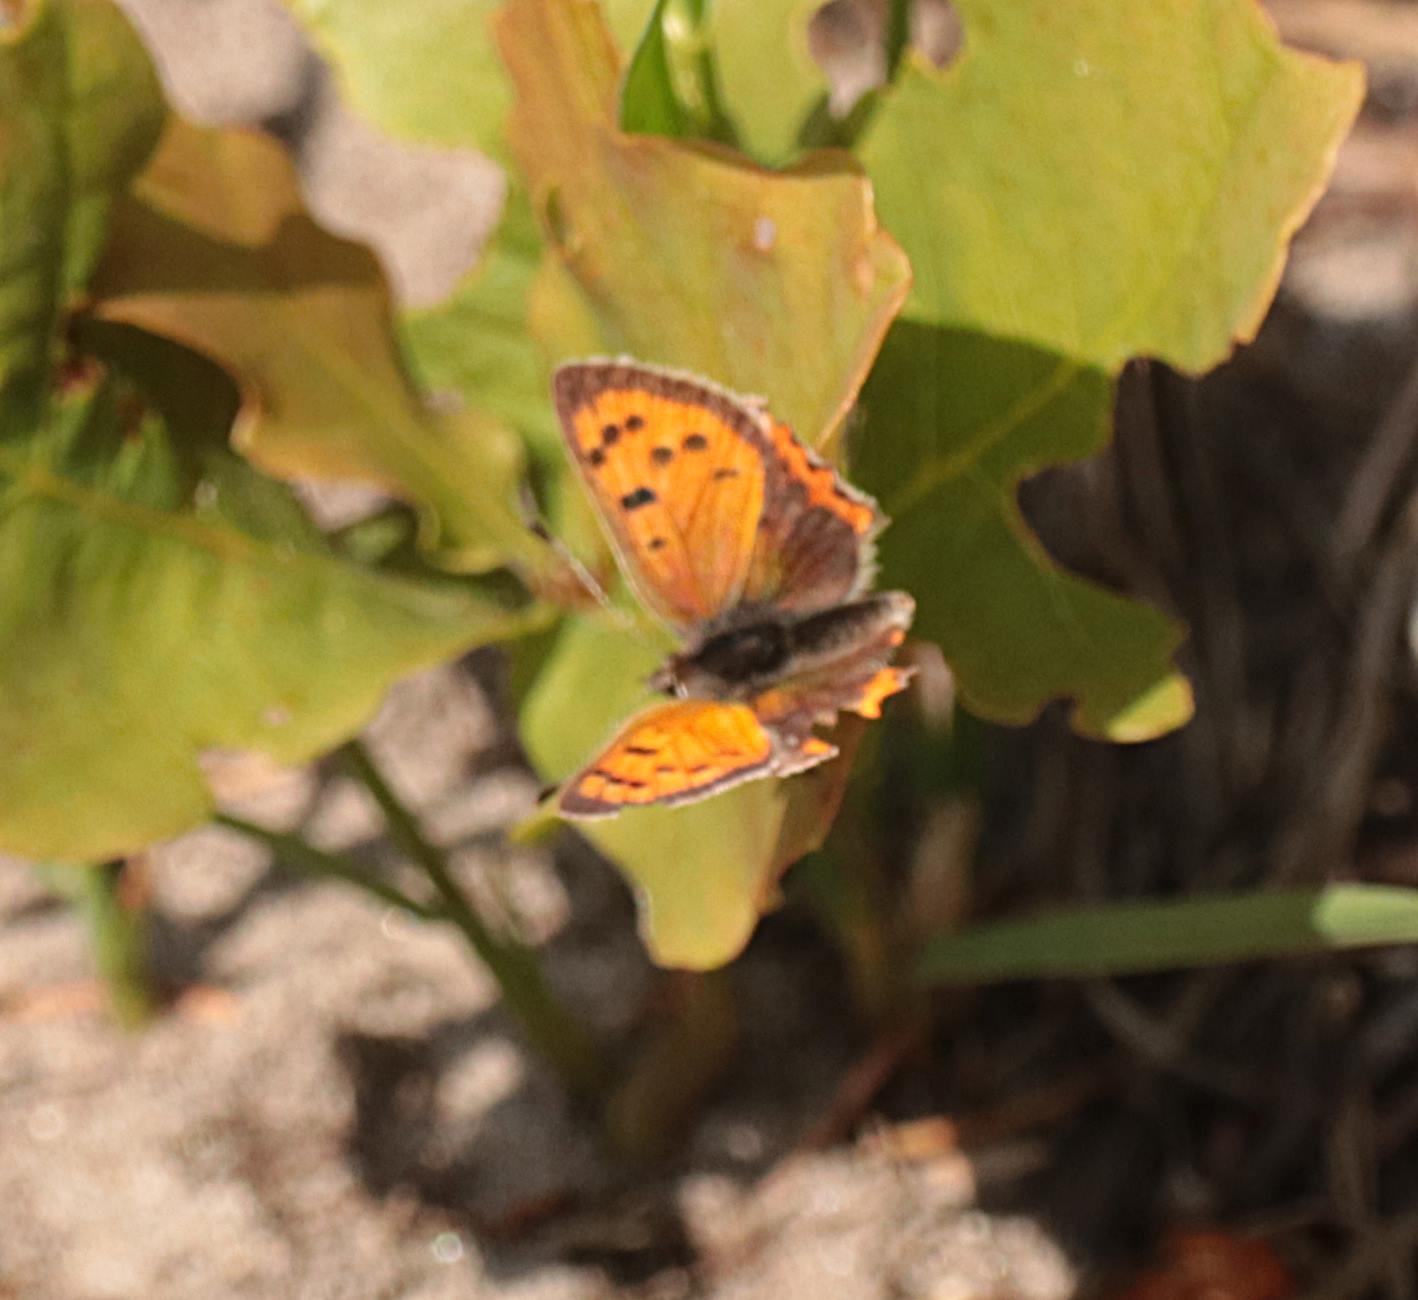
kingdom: Animalia
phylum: Arthropoda
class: Insecta
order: Lepidoptera
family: Lycaenidae
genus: Lycaena
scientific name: Lycaena phlaeas
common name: Lille ildfugl
